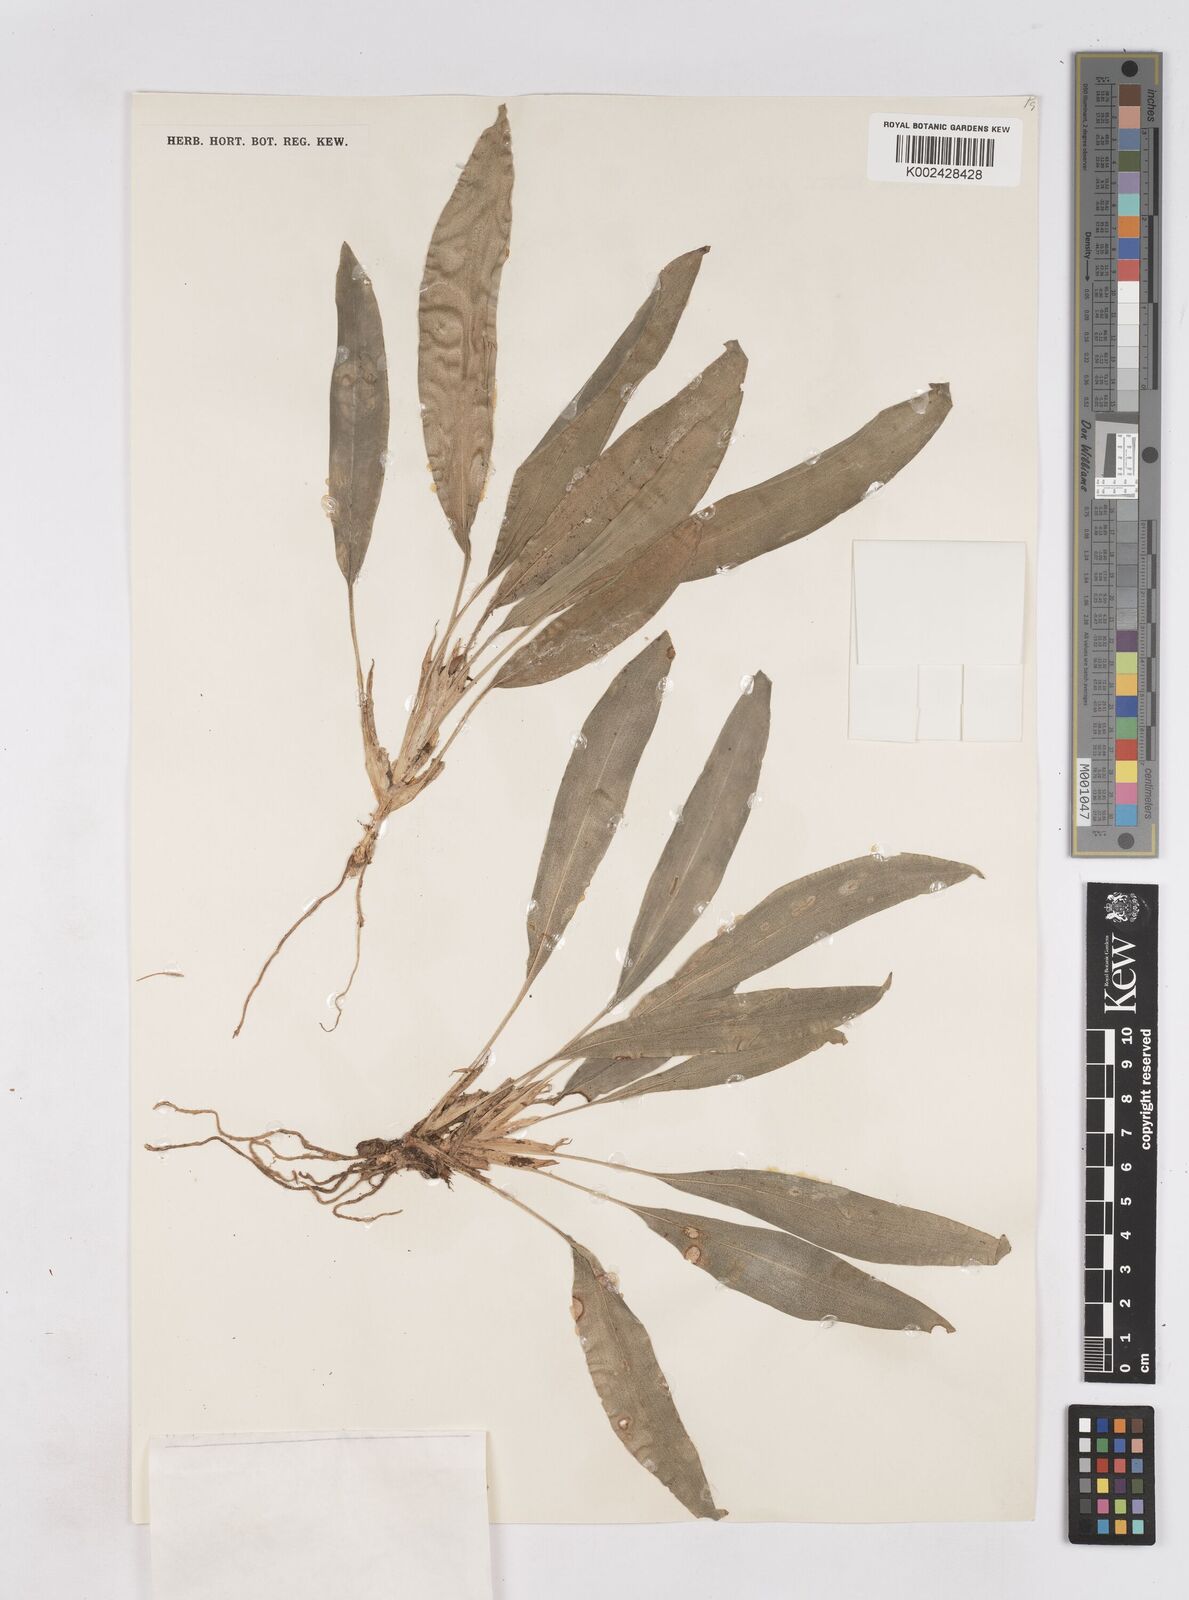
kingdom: Plantae
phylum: Tracheophyta
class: Liliopsida
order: Zingiberales
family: Zingiberaceae
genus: Boesenbergia
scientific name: Boesenbergia parva
